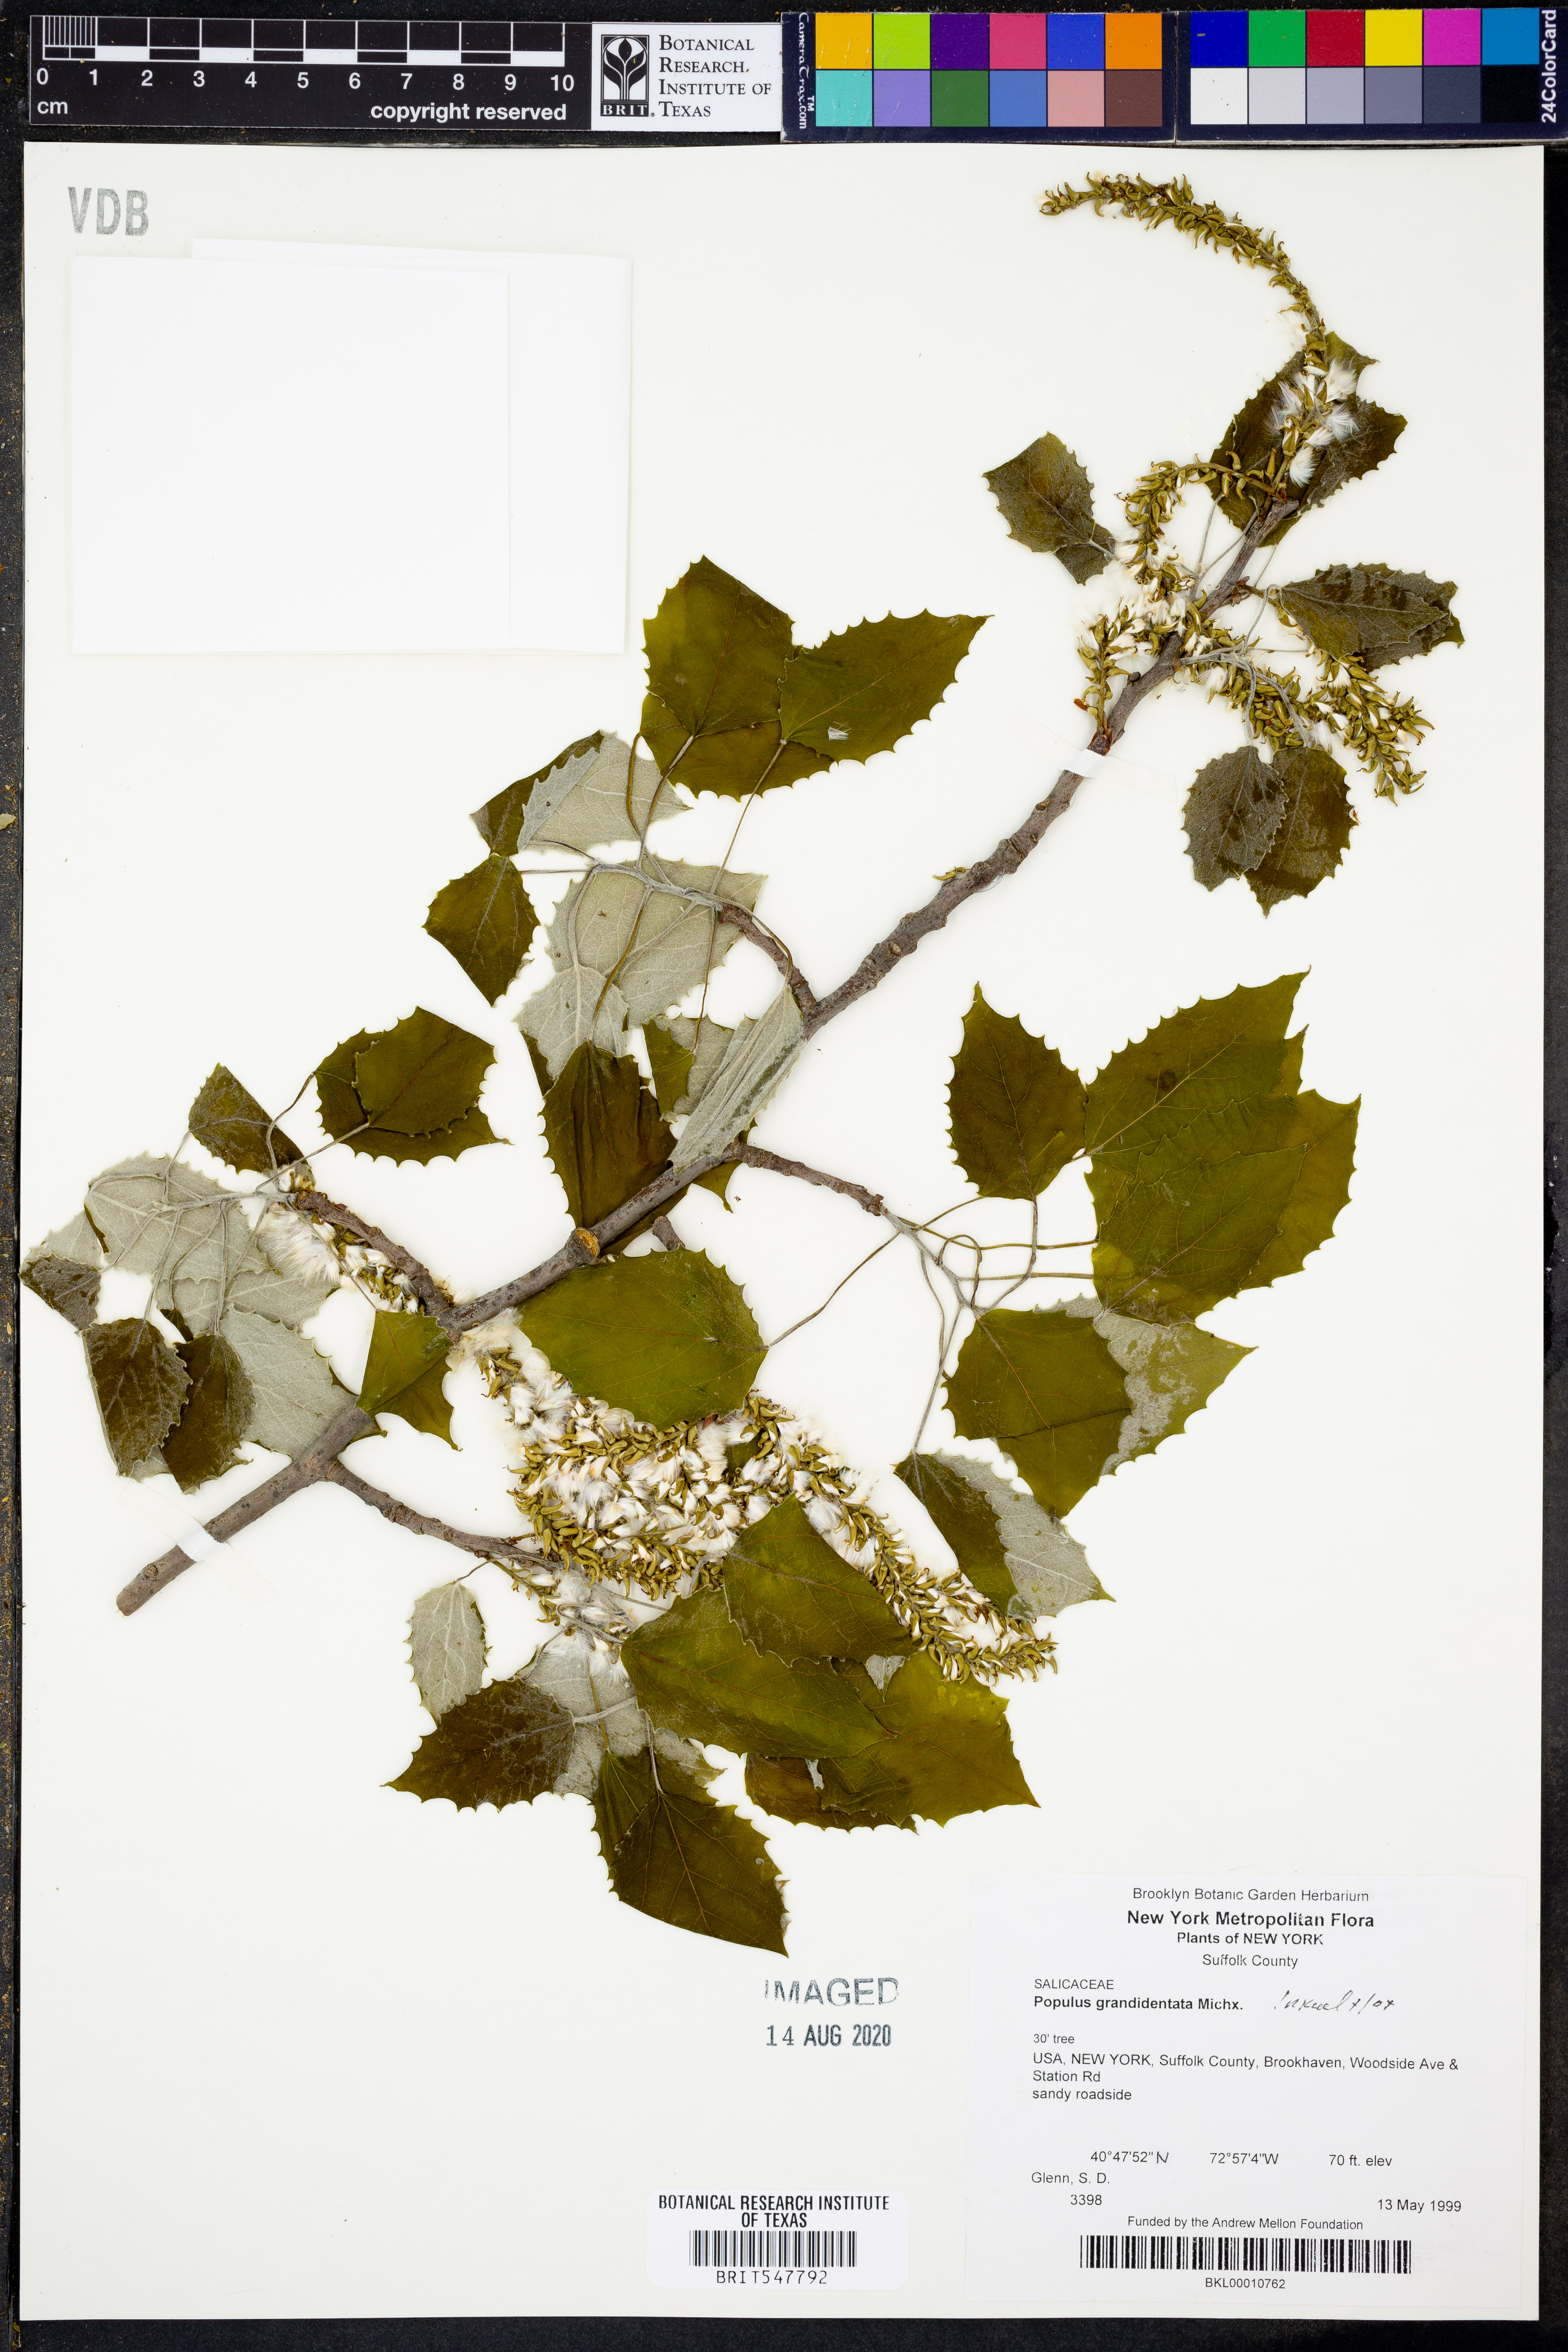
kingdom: Plantae
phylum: Tracheophyta
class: Magnoliopsida
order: Malpighiales
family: Salicaceae
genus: Populus
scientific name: Populus grandidentata
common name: Bigtooth aspen
